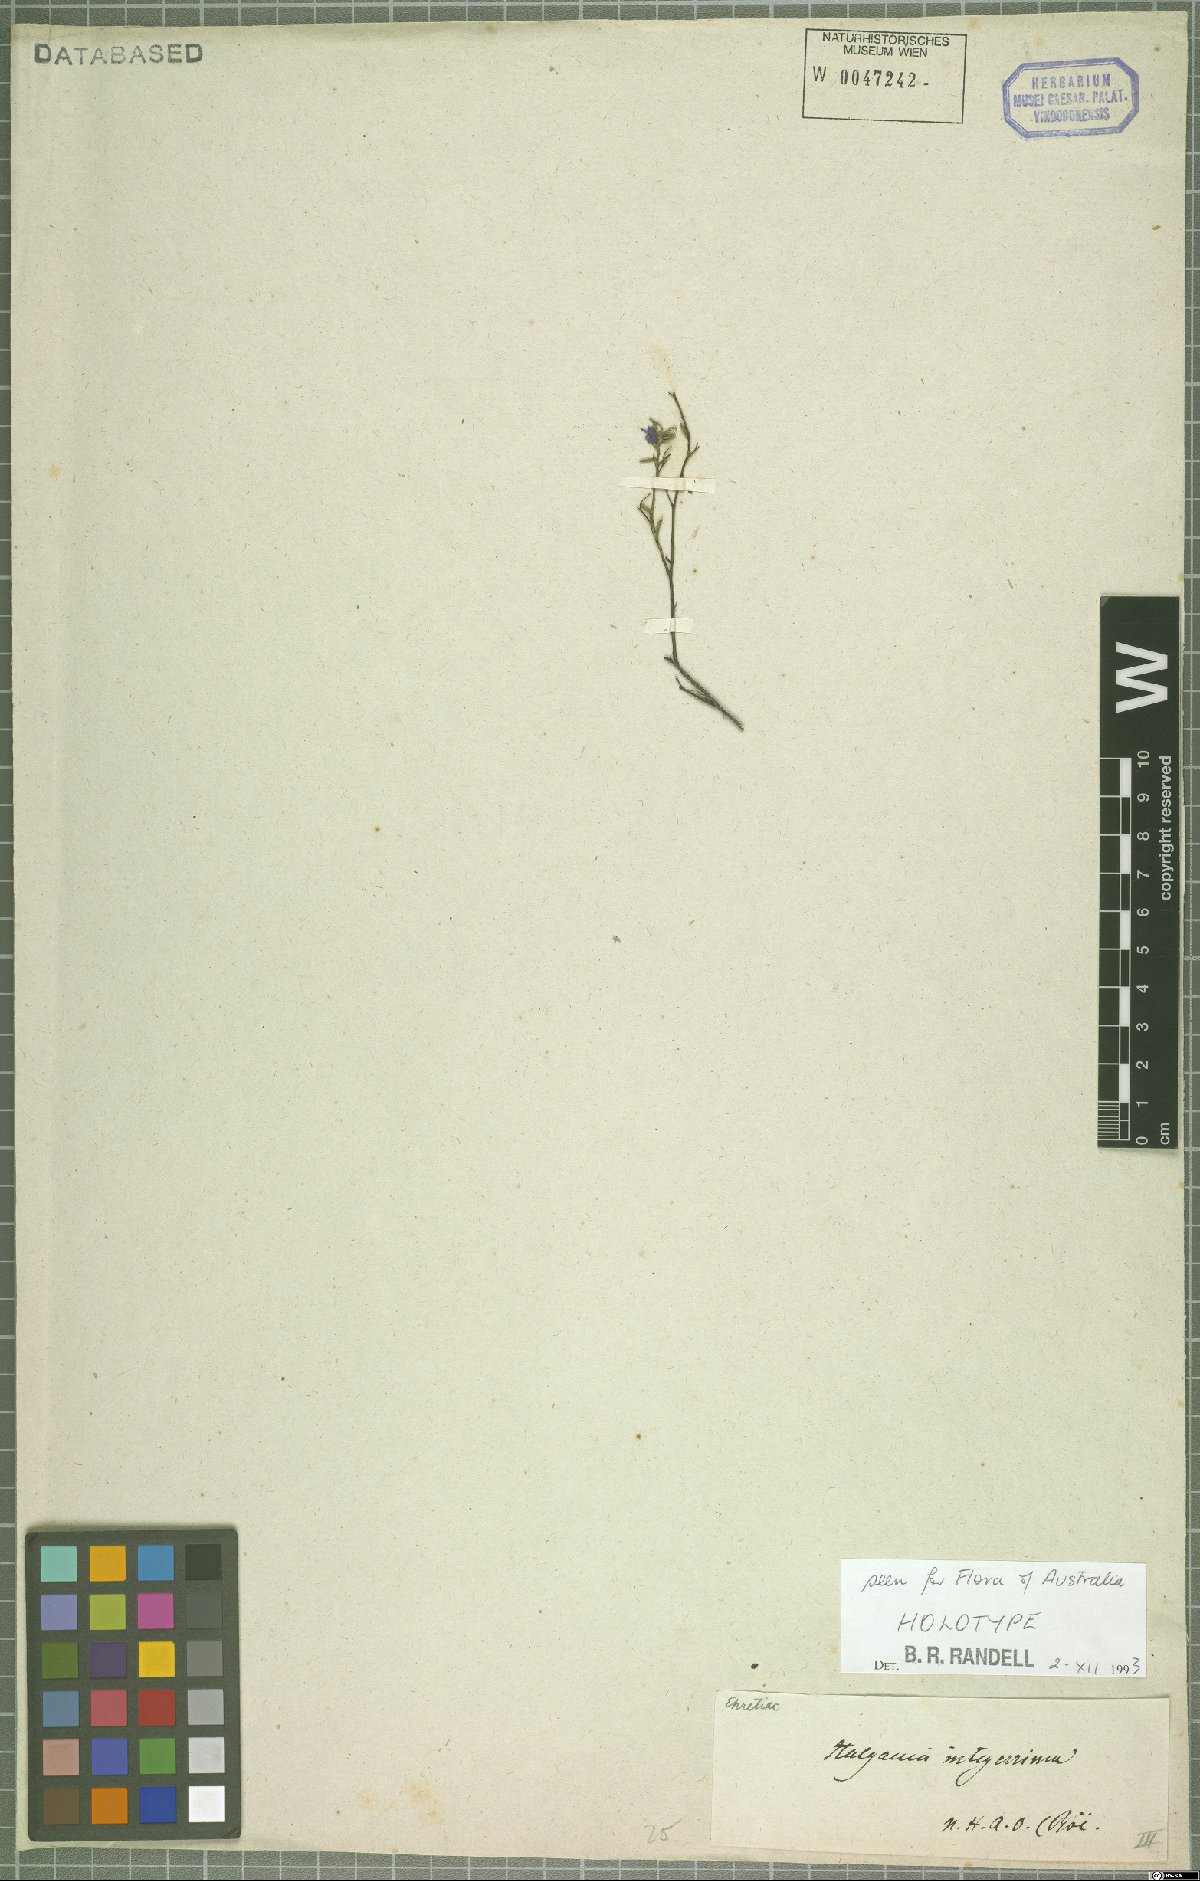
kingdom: Plantae
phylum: Tracheophyta
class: Magnoliopsida
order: Boraginales
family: Ehretiaceae
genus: Halgania
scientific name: Halgania integerrima
